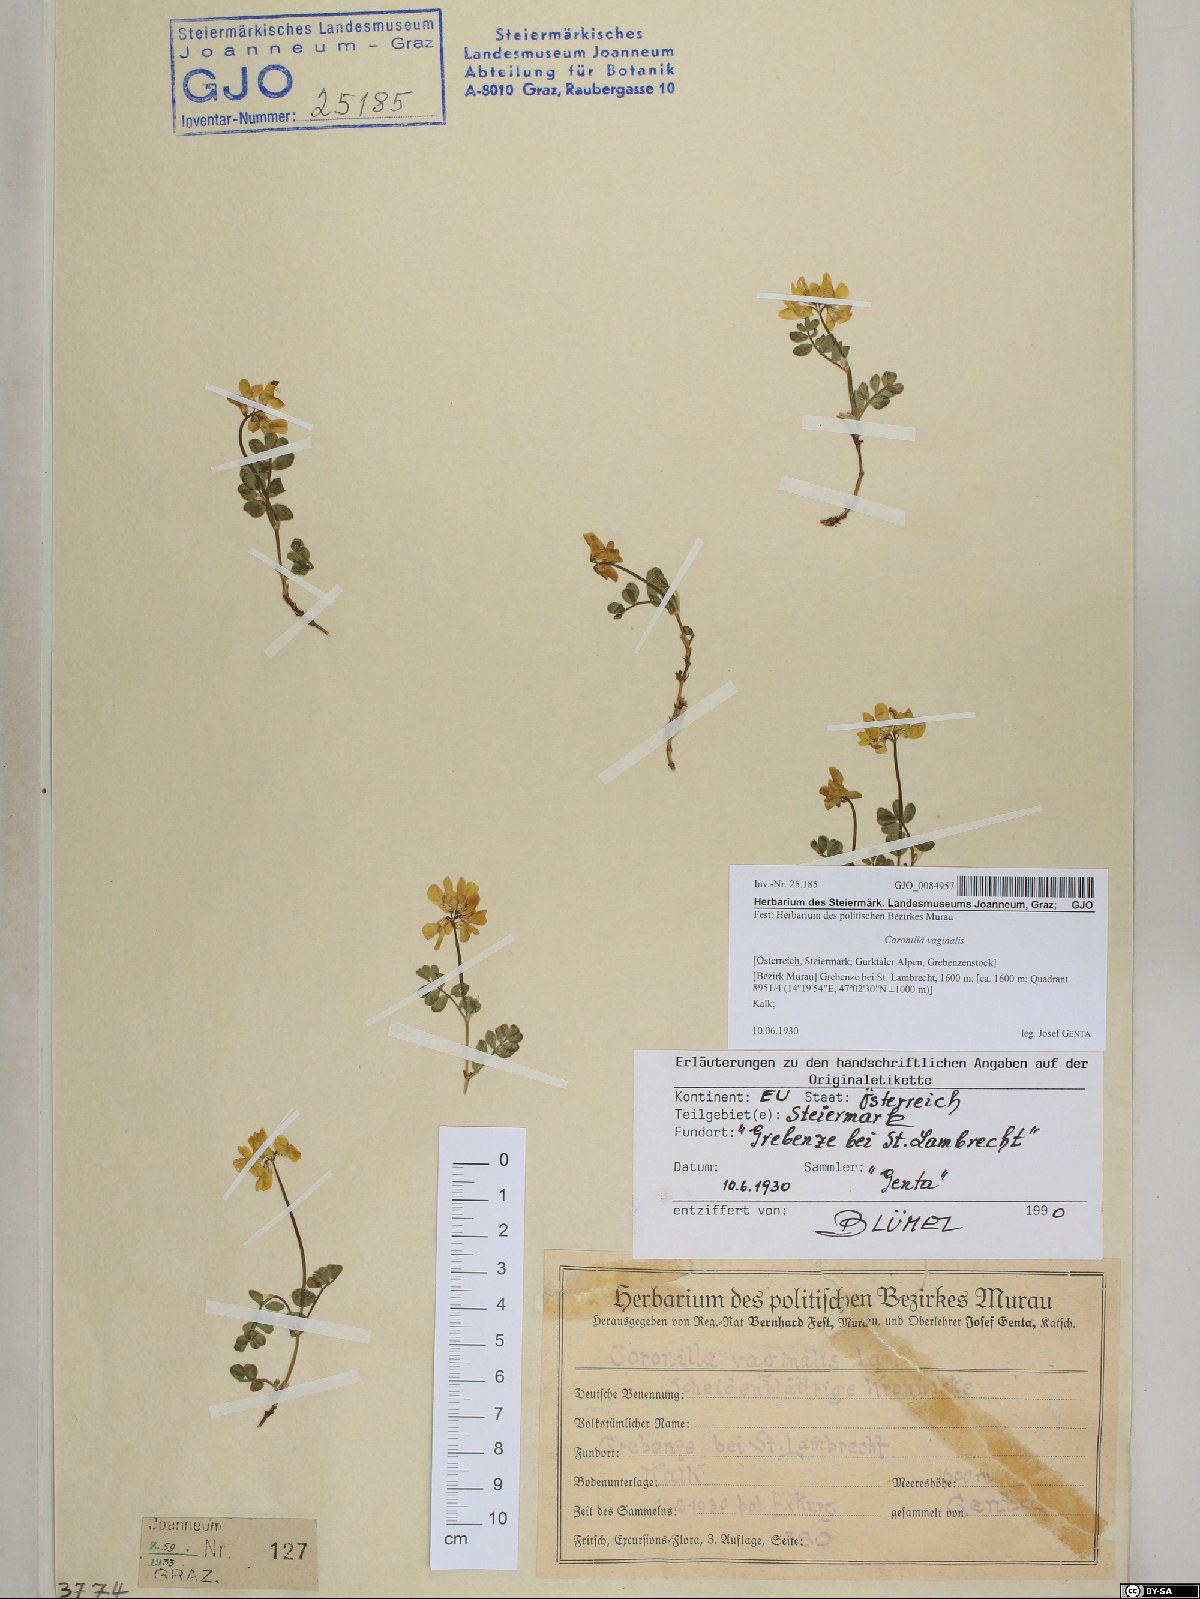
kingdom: Plantae
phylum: Tracheophyta
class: Magnoliopsida
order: Fabales
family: Fabaceae
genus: Coronilla
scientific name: Coronilla vaginalis
